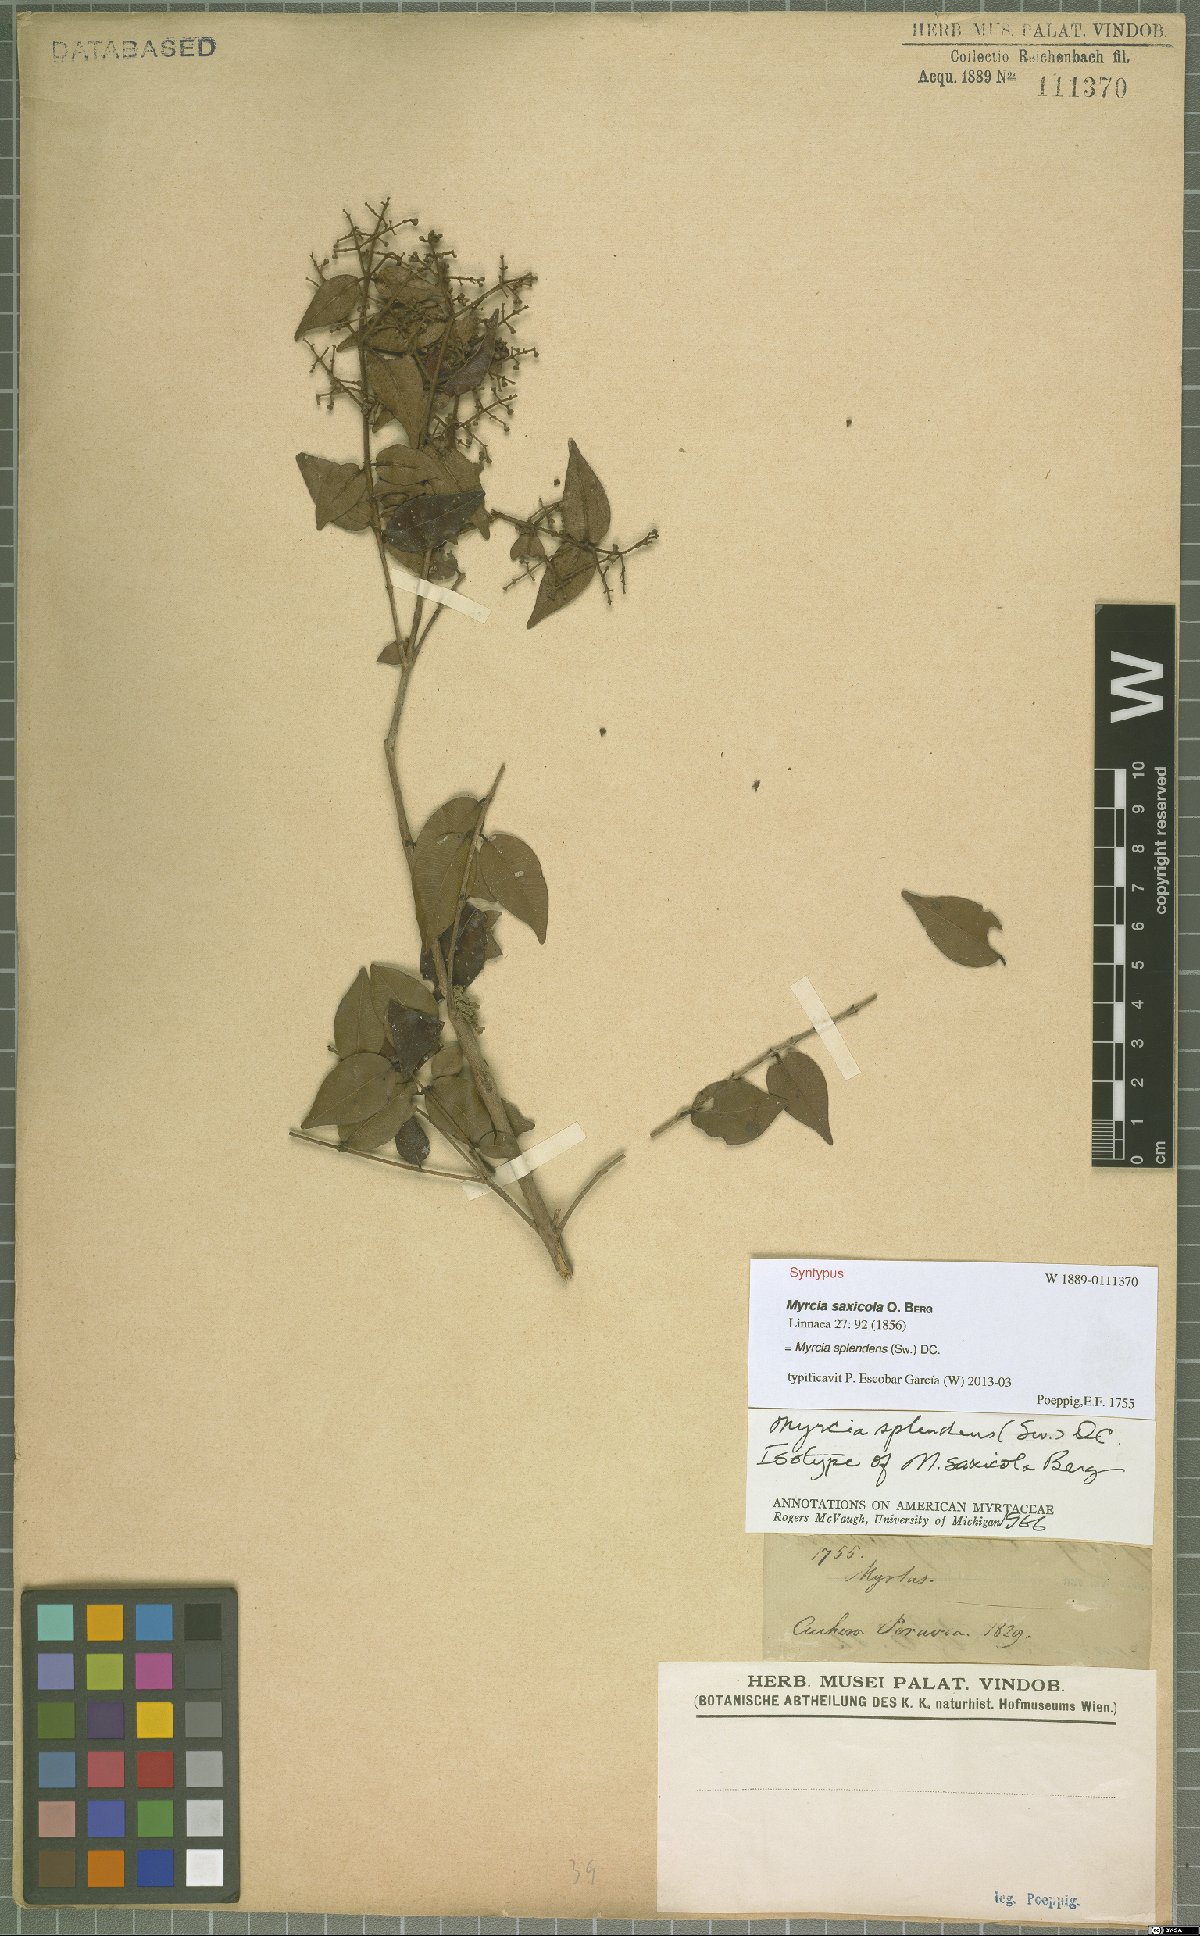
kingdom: Plantae
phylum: Tracheophyta
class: Magnoliopsida
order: Myrtales
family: Myrtaceae
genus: Myrcia
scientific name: Myrcia splendens
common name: Surinam cherry
